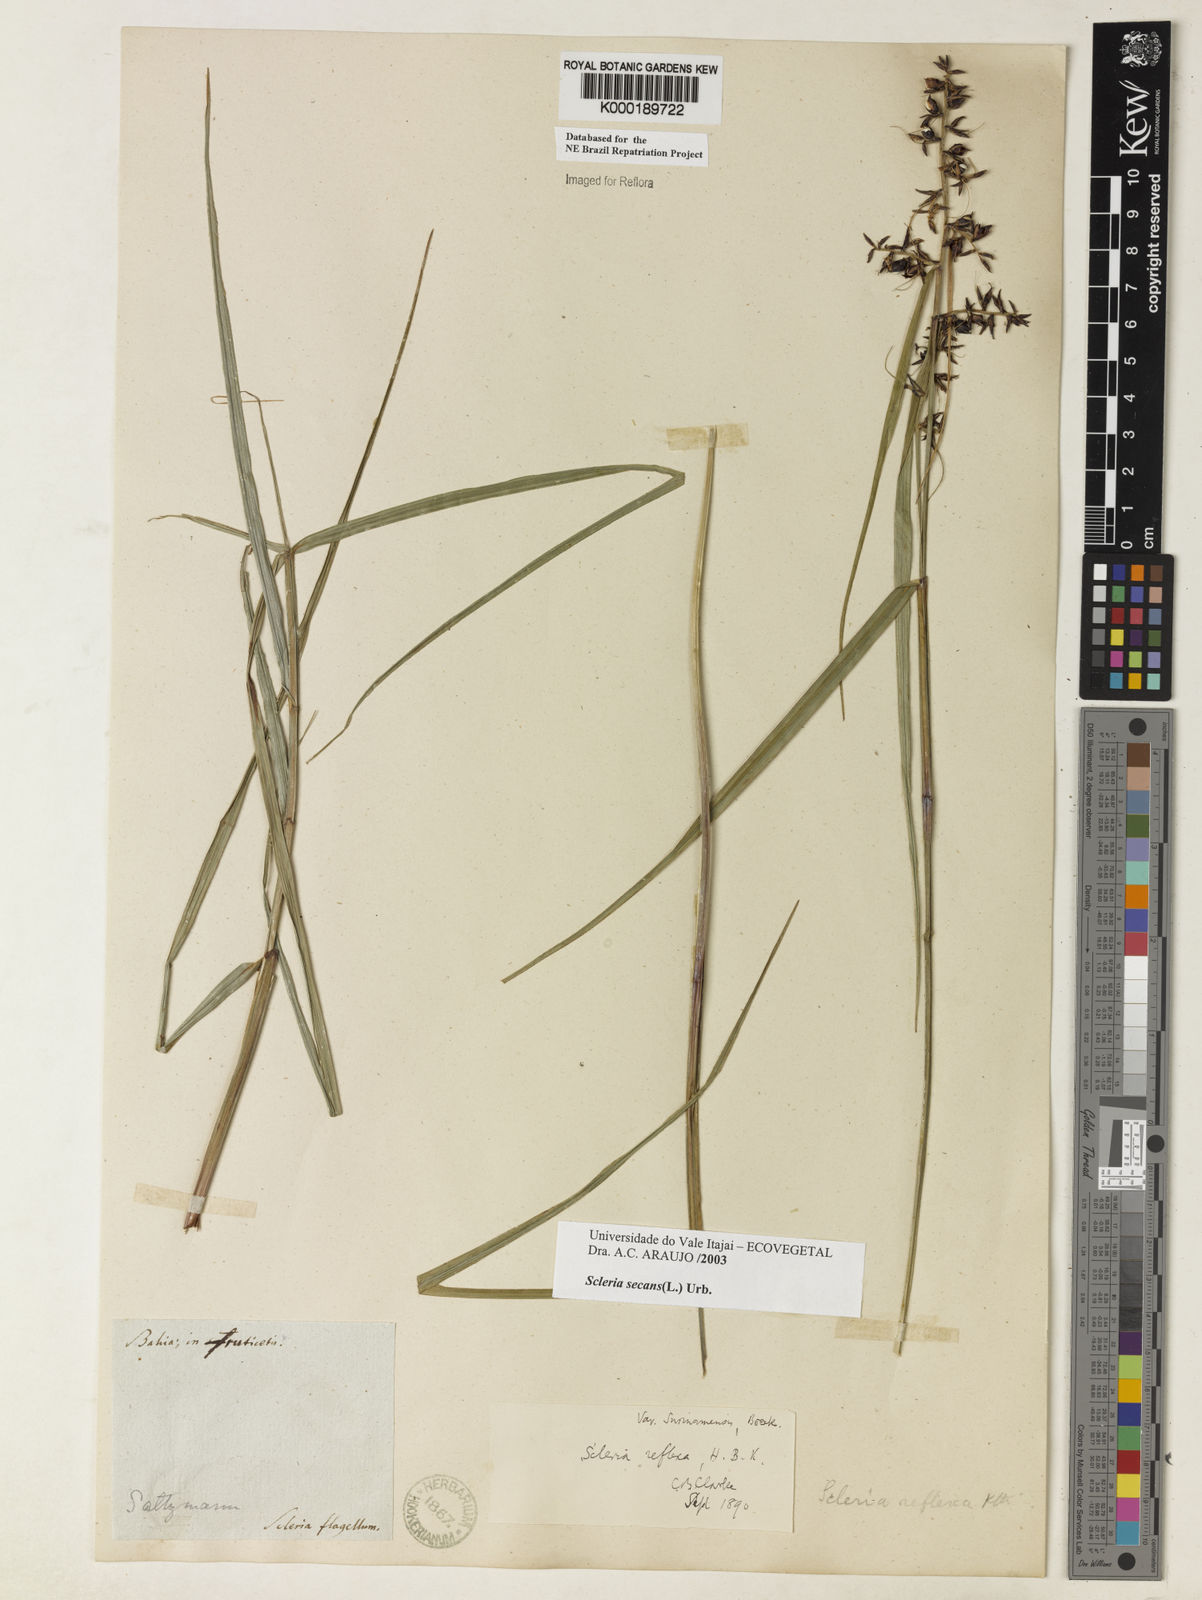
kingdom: Plantae
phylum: Tracheophyta
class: Liliopsida
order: Poales
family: Cyperaceae
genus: Scleria
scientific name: Scleria secans
